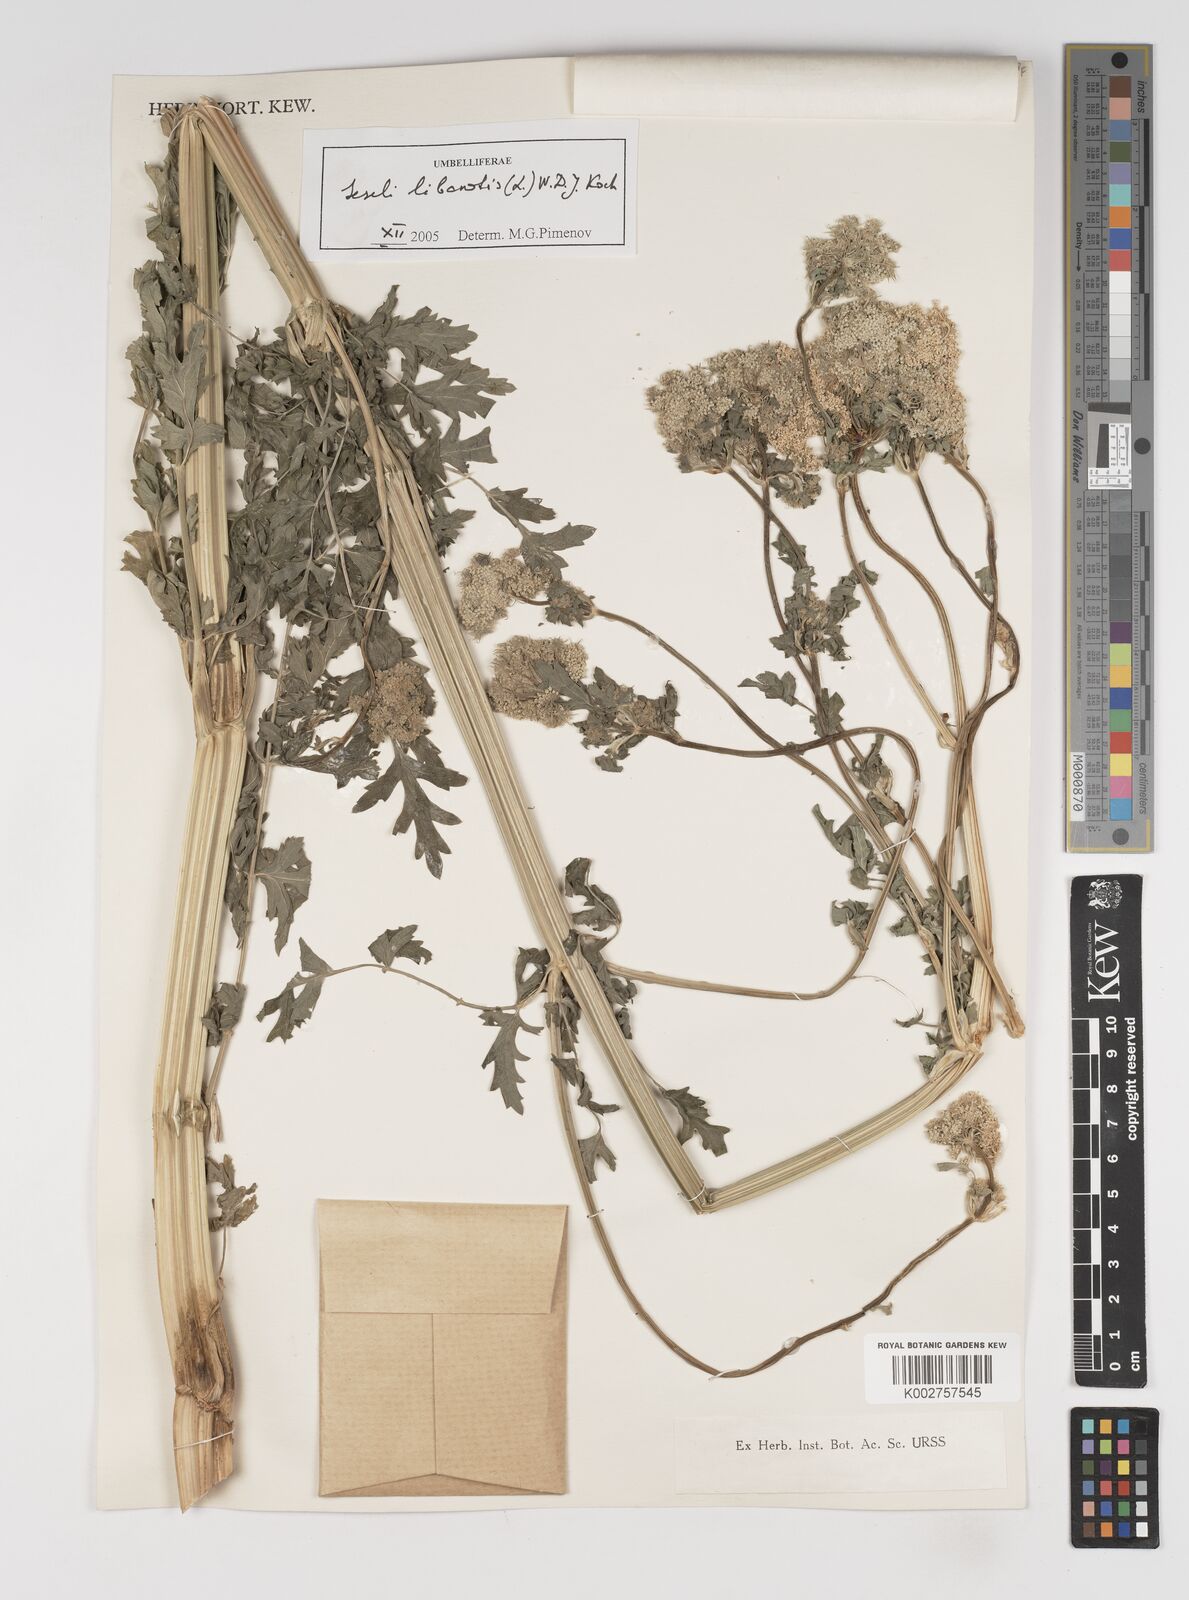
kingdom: Plantae
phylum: Tracheophyta
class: Magnoliopsida
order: Apiales
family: Apiaceae
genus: Seseli
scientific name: Seseli transcaucasicum
